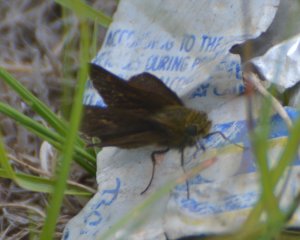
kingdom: Animalia
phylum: Arthropoda
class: Insecta
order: Lepidoptera
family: Hesperiidae
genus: Euphyes
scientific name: Euphyes vestris
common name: Dun Skipper
